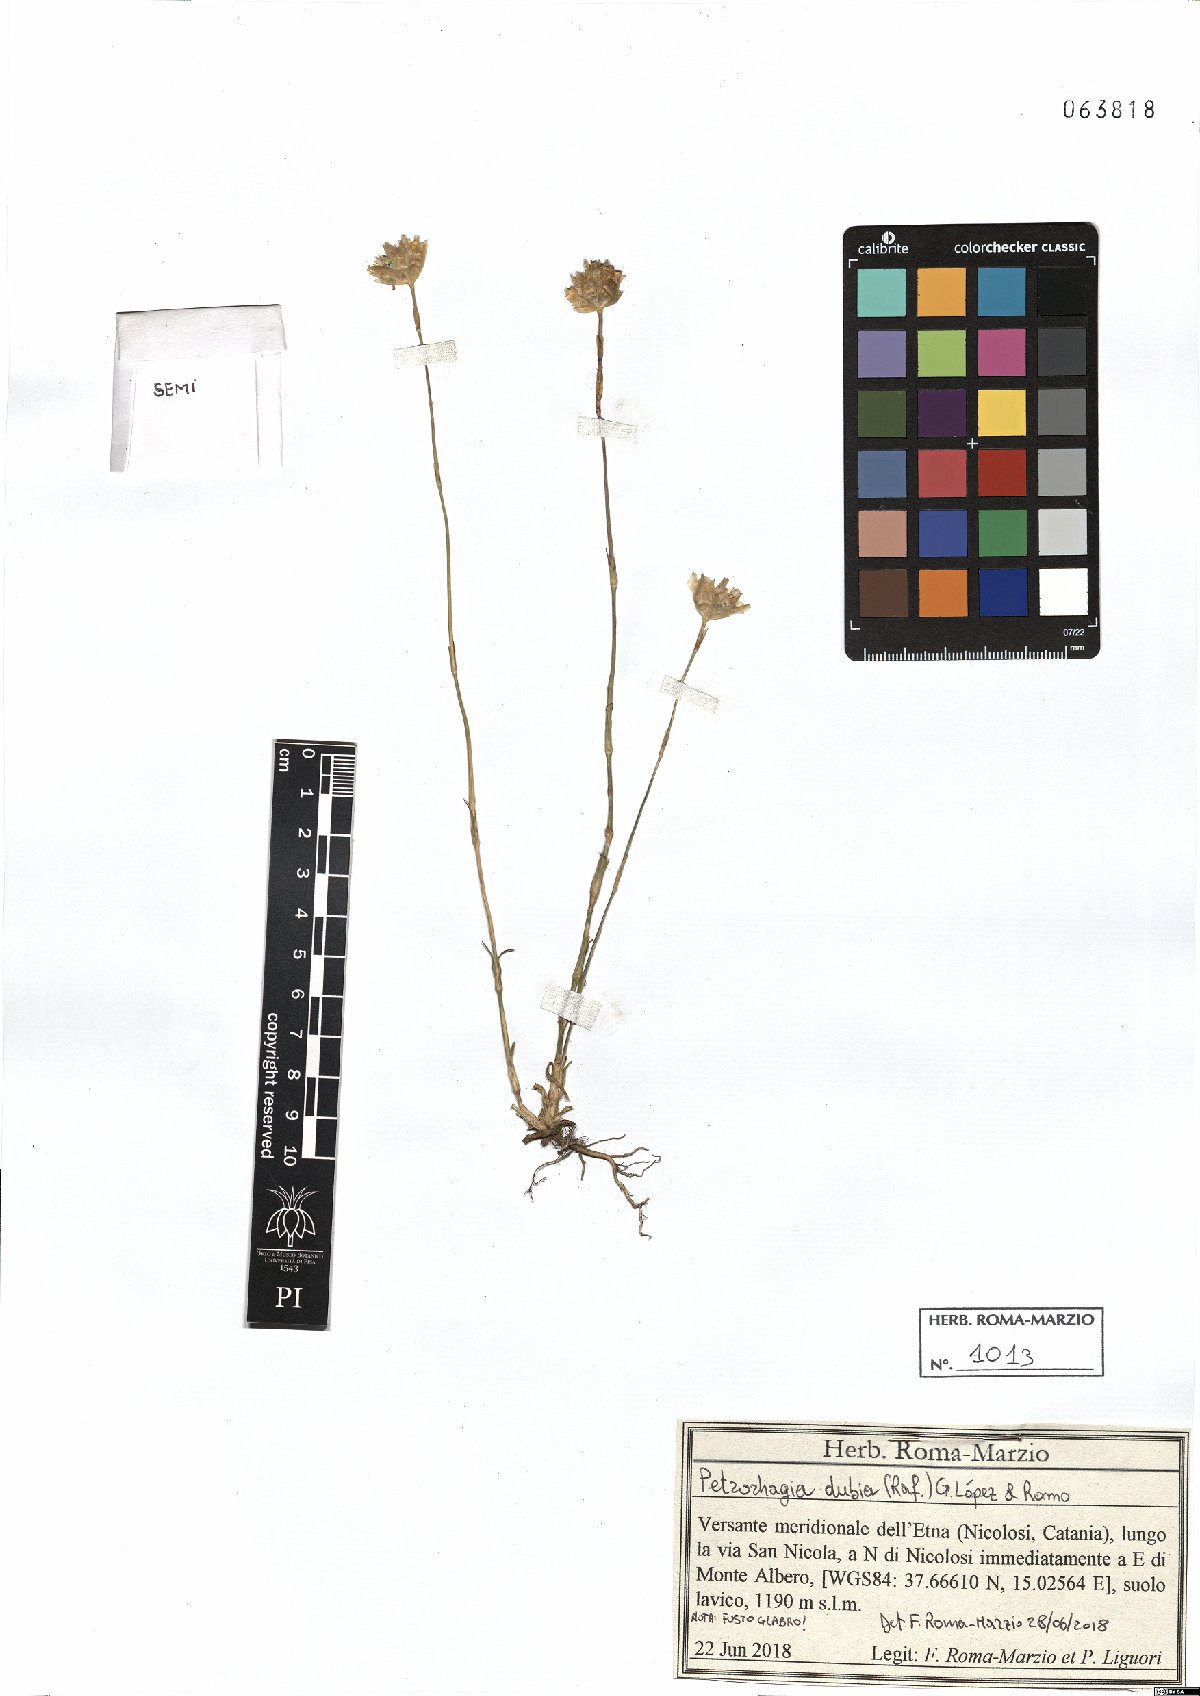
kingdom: Plantae
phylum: Tracheophyta
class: Magnoliopsida
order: Caryophyllales
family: Caryophyllaceae
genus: Petrorhagia
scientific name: Petrorhagia dubia
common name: Hairypink
